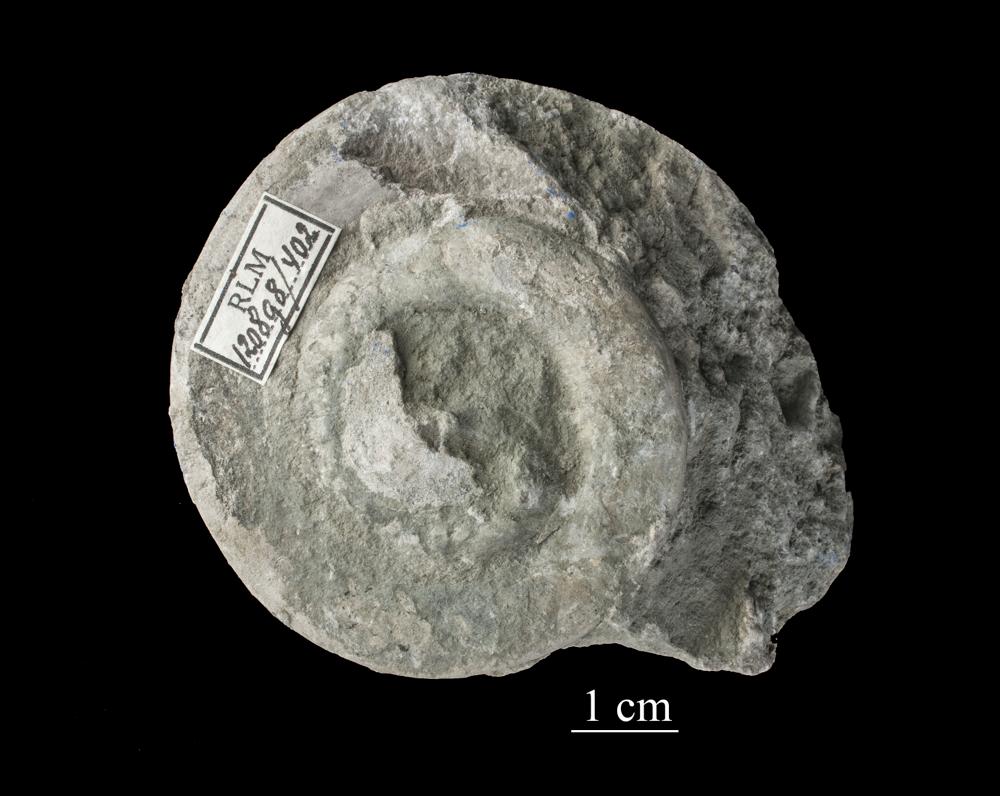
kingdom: Animalia
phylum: Mollusca
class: Gastropoda
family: Euomphalidae
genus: Euomphalus
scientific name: Euomphalus
